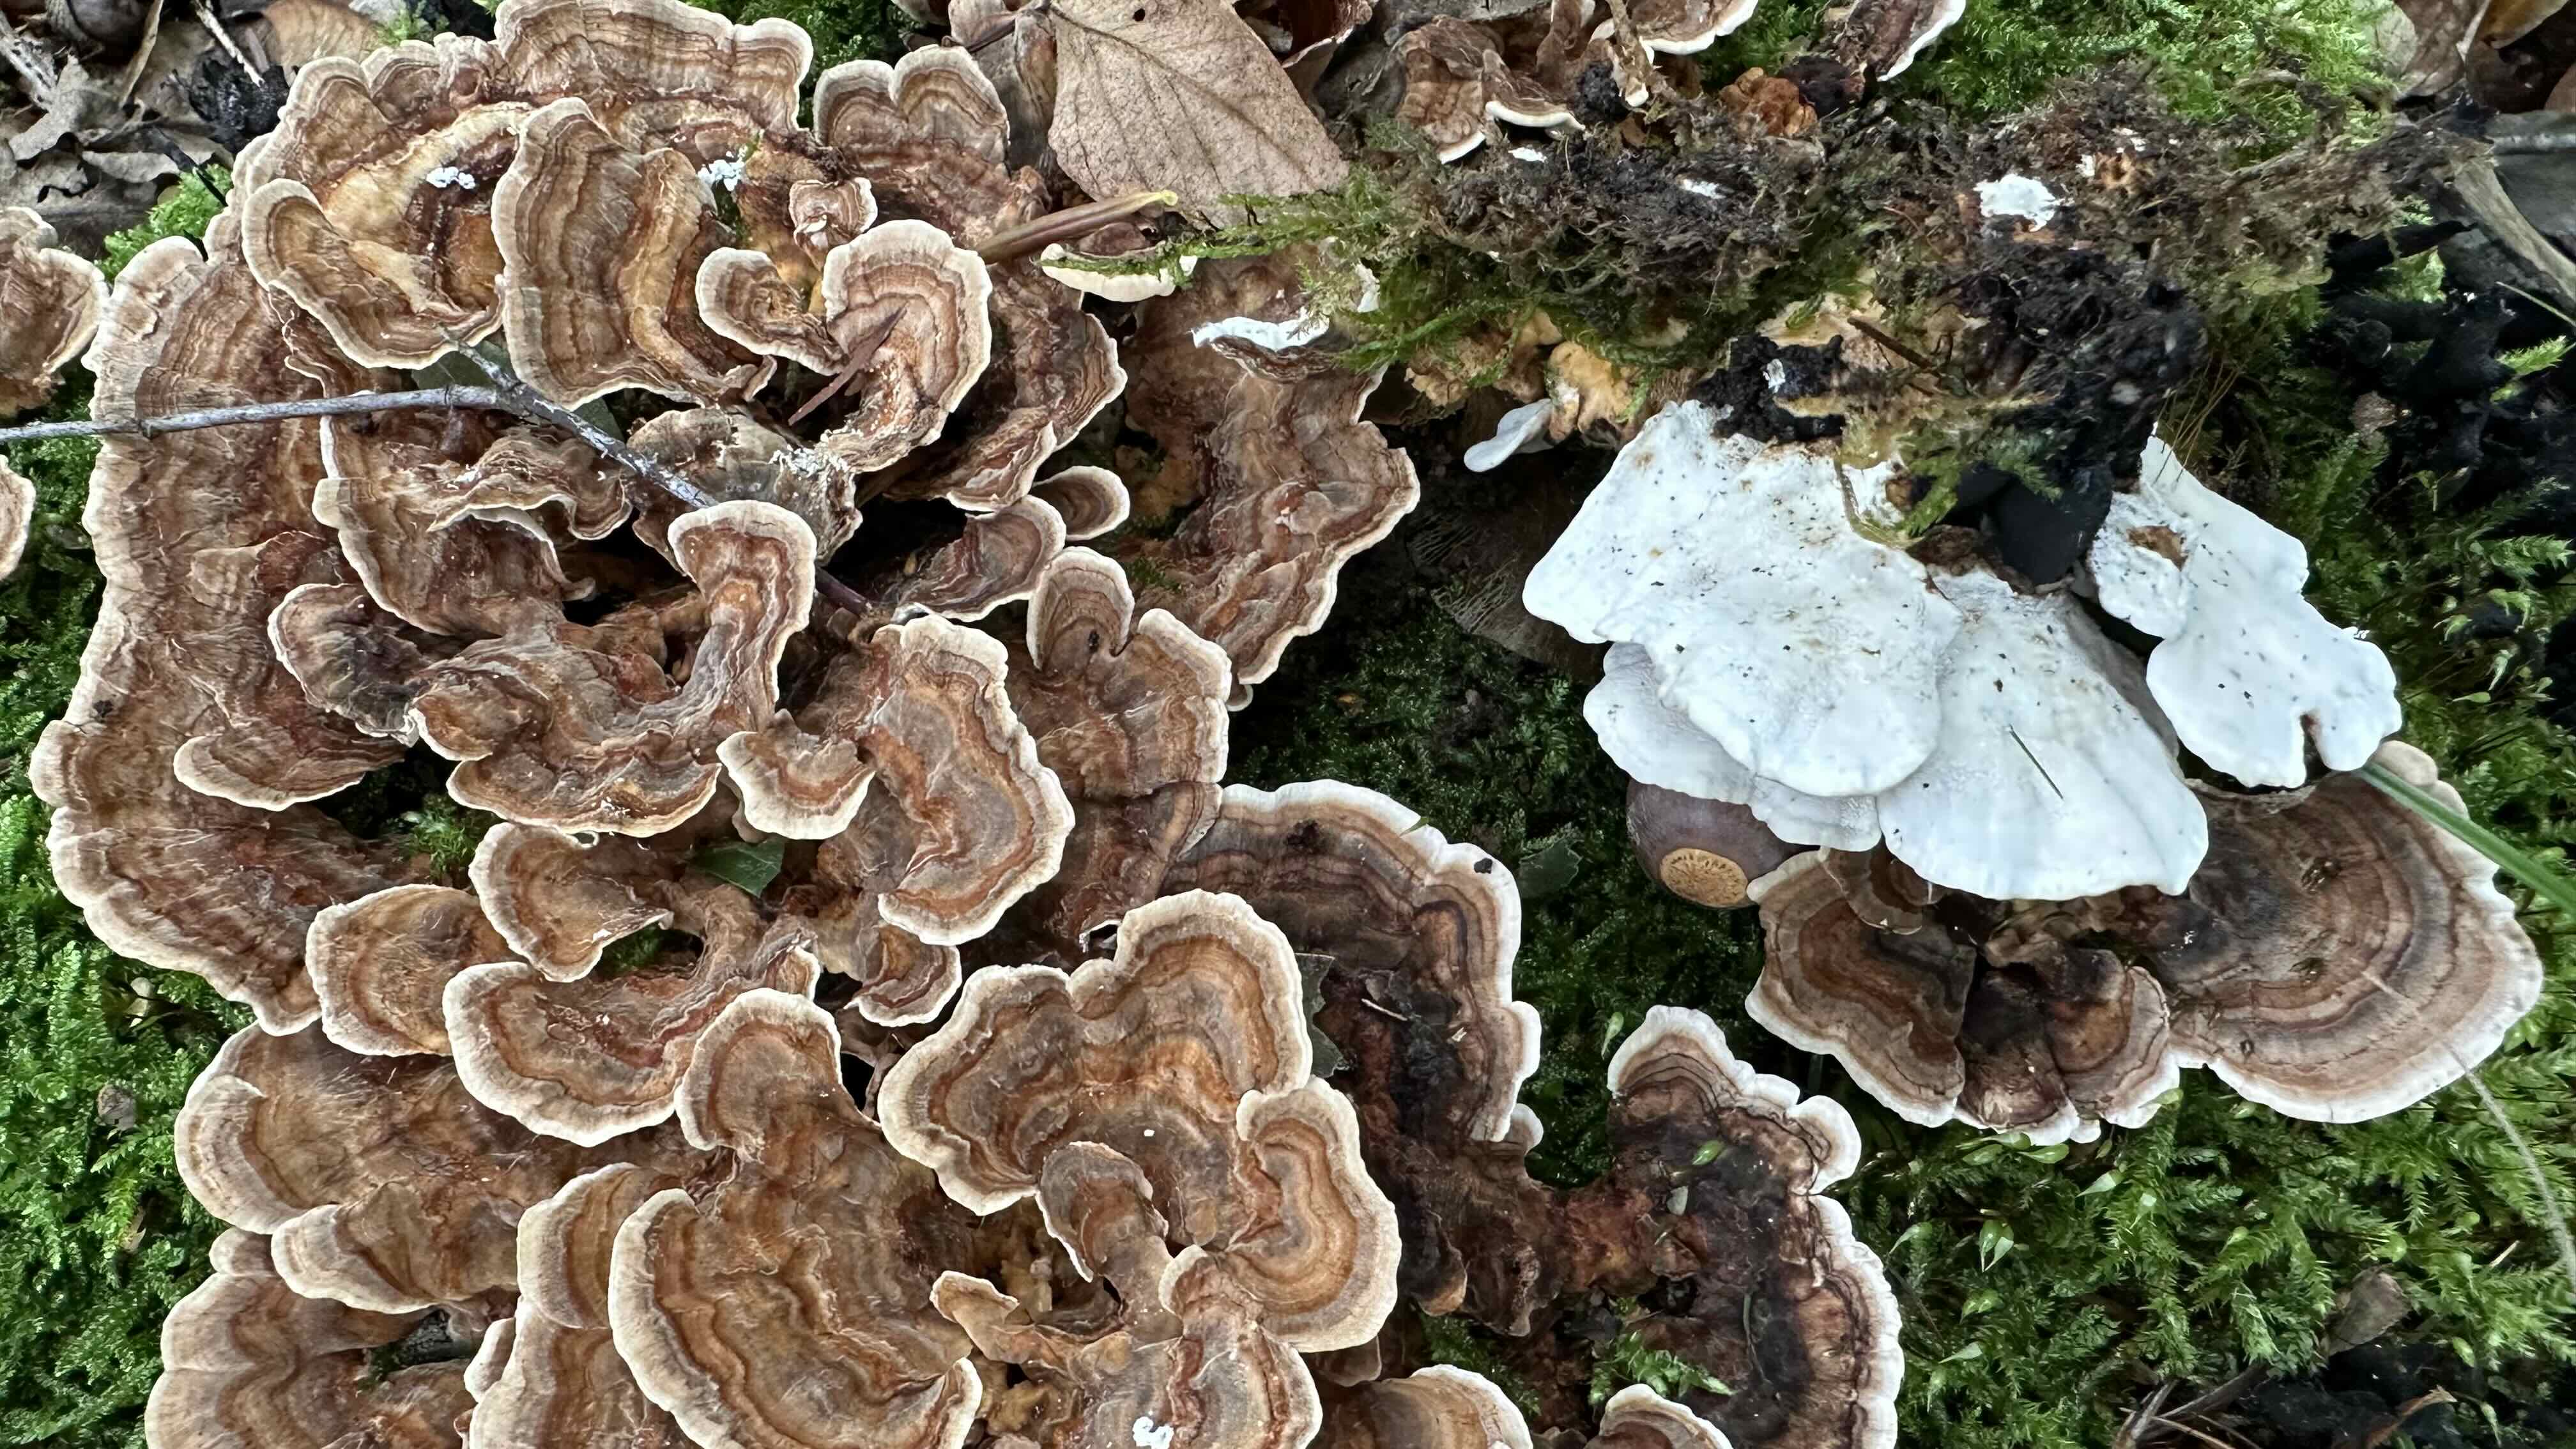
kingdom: Fungi
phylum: Basidiomycota
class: Agaricomycetes
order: Polyporales
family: Polyporaceae
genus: Trametes
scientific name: Trametes versicolor
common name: broget læderporesvamp
